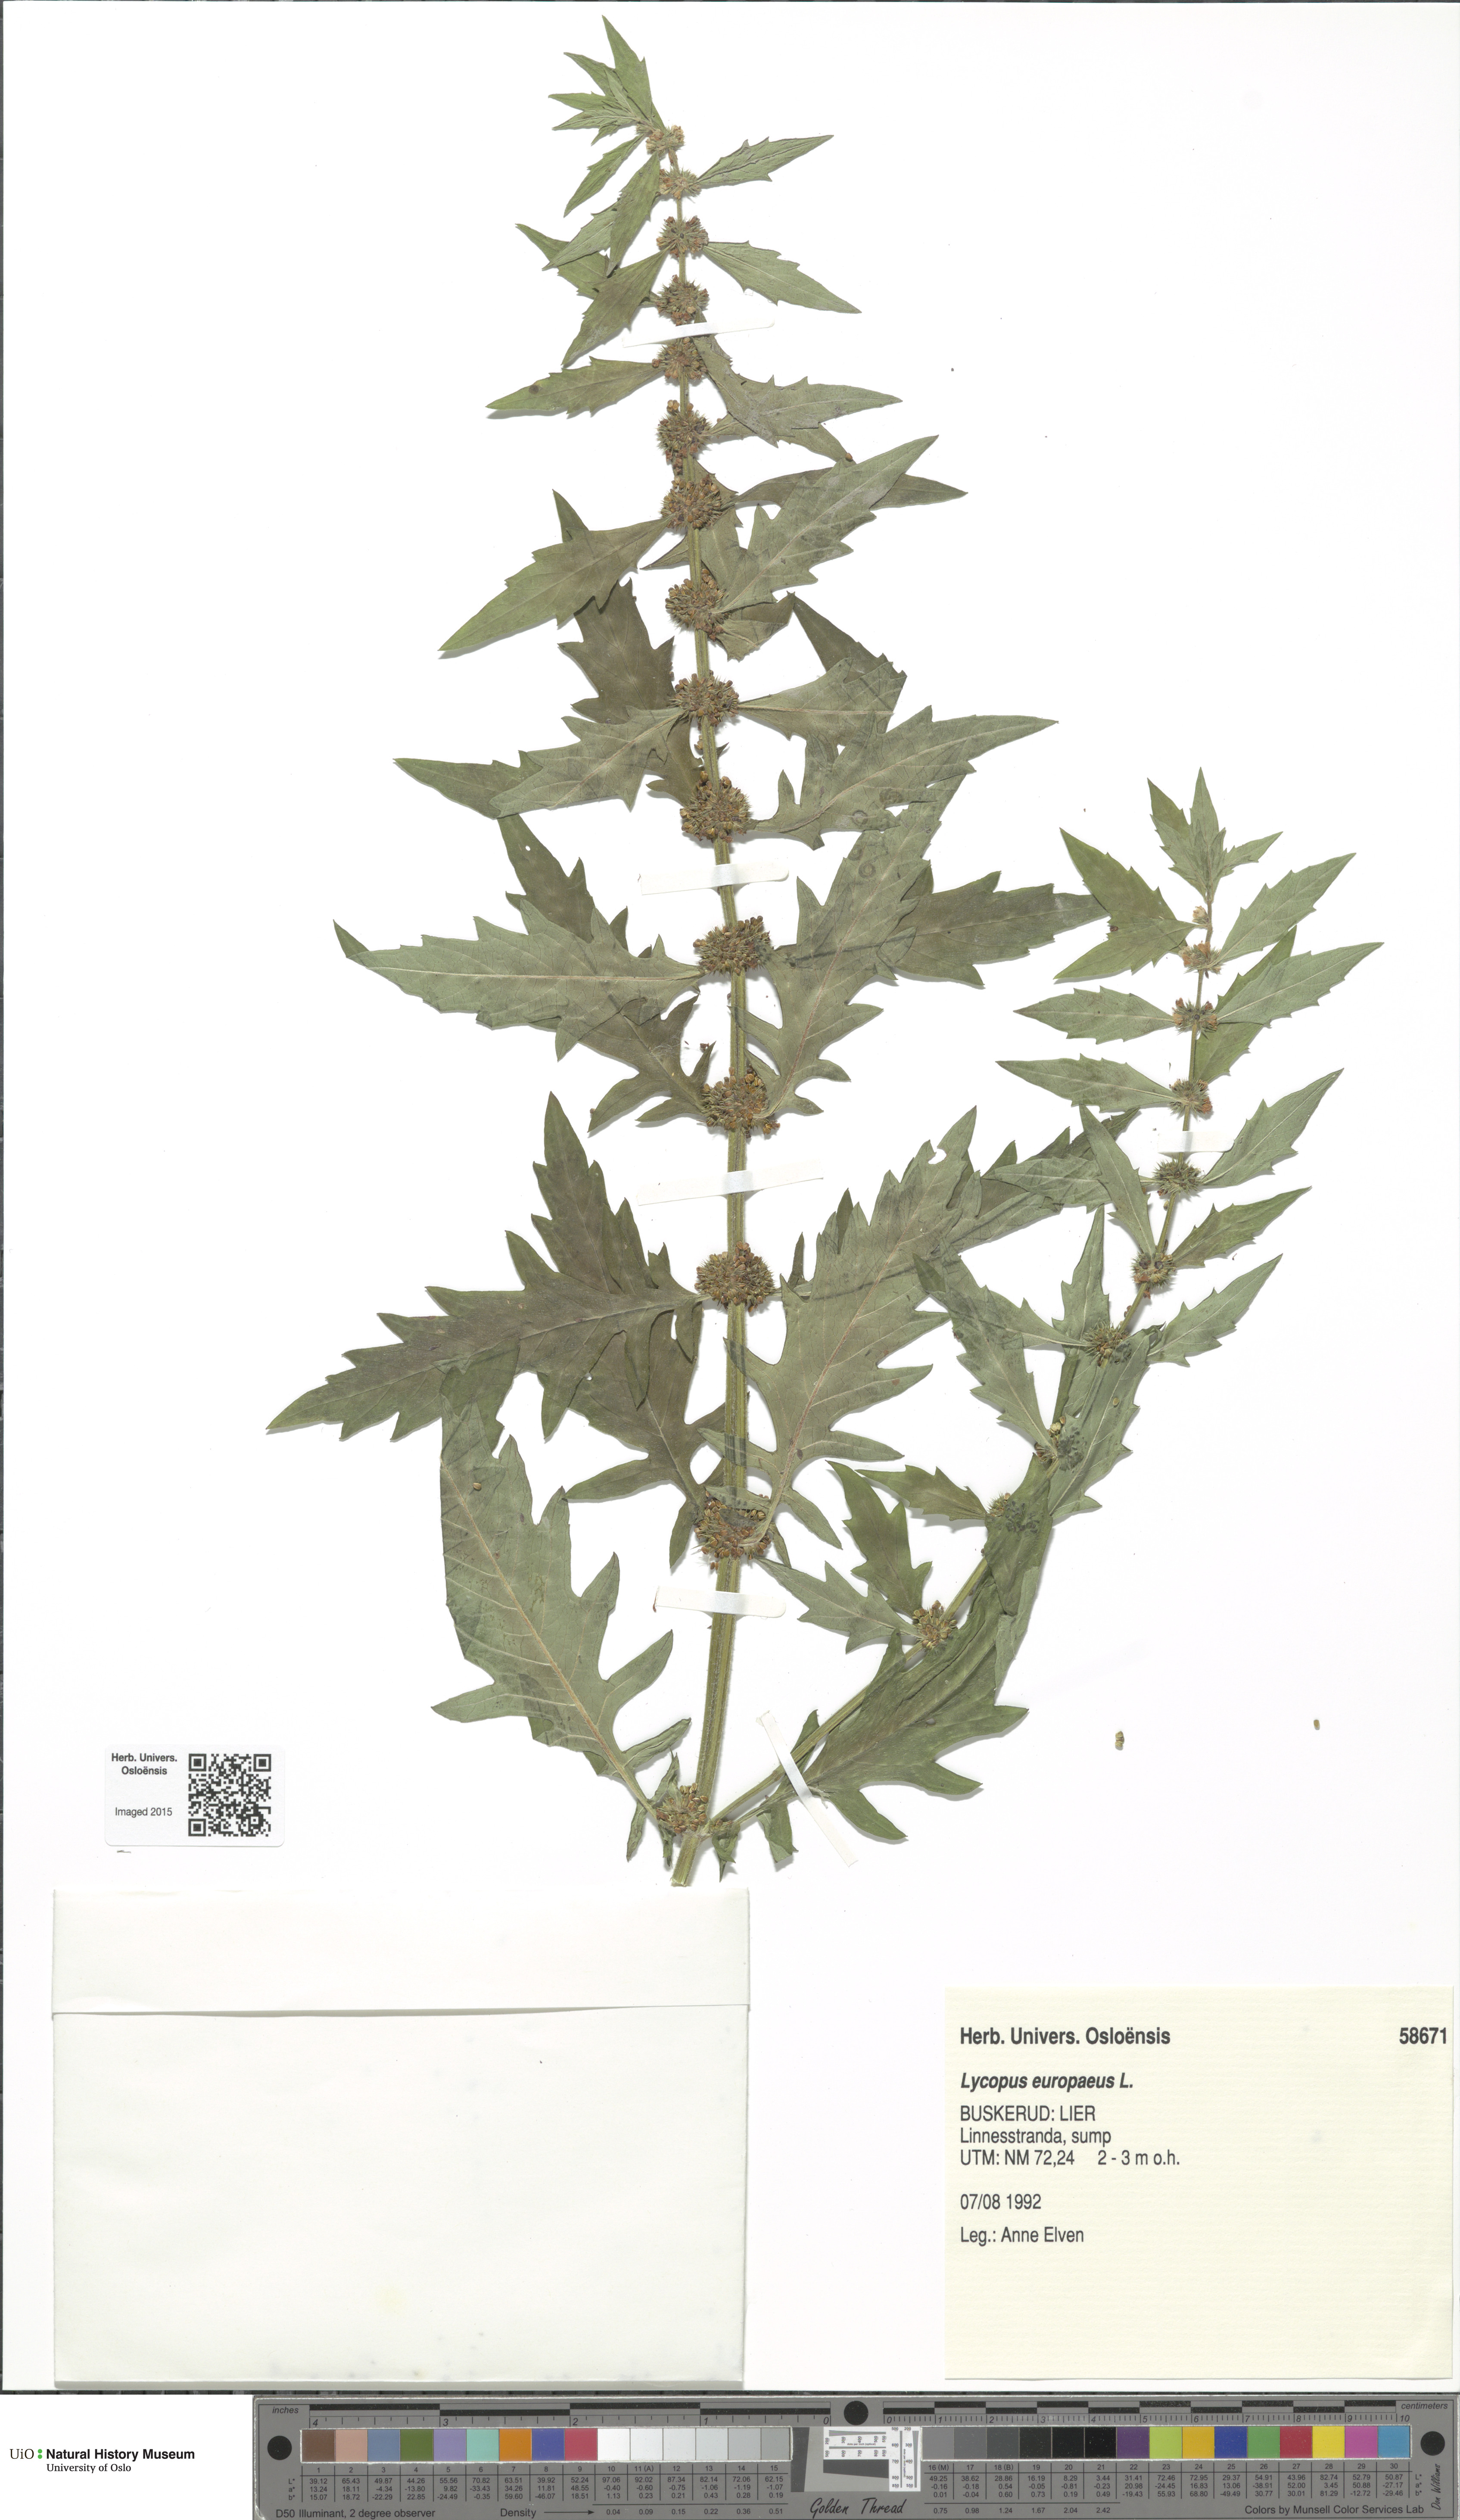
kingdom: Plantae
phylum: Tracheophyta
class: Magnoliopsida
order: Lamiales
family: Lamiaceae
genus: Lycopus
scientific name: Lycopus europaeus
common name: European bugleweed
